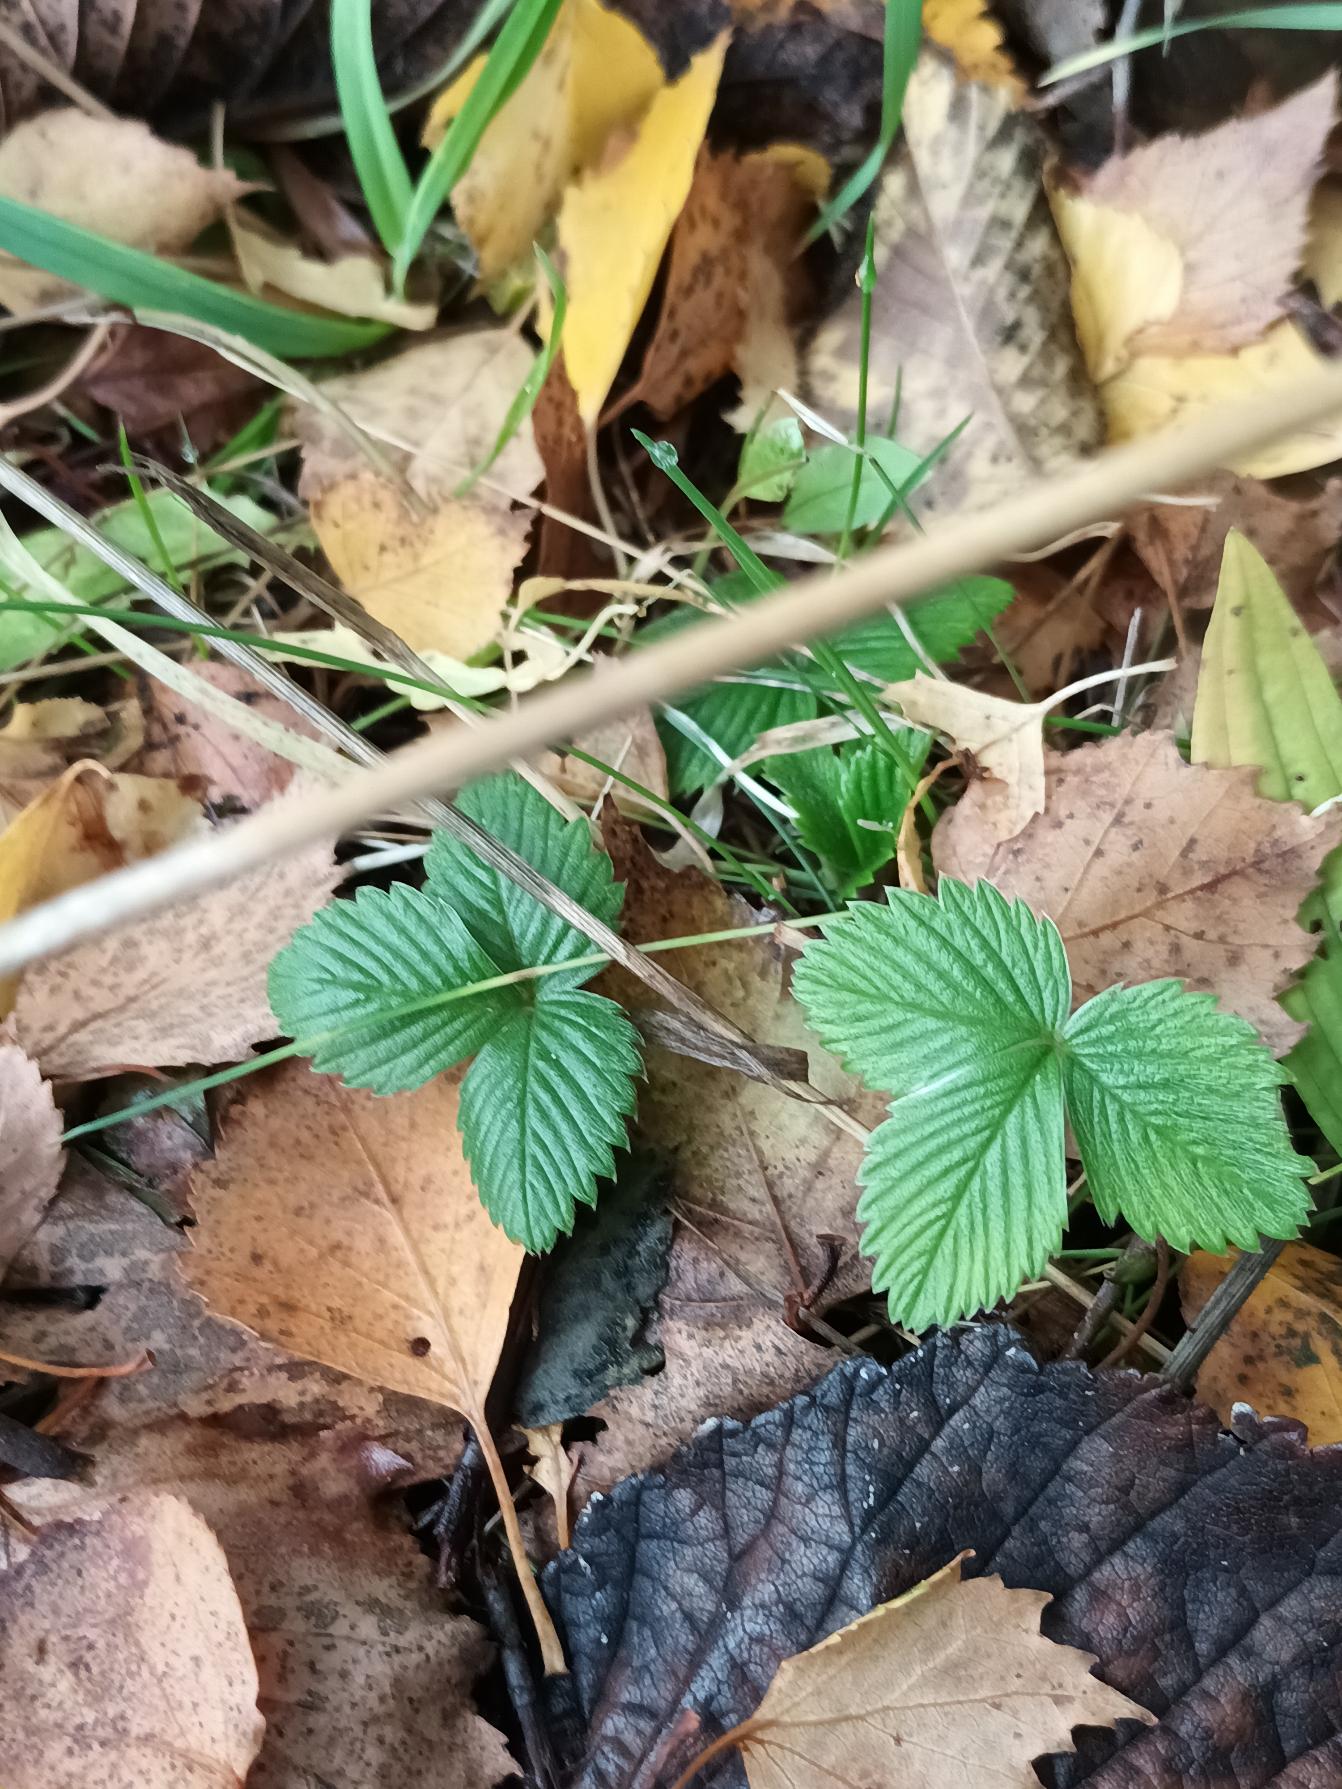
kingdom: Plantae
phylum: Tracheophyta
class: Magnoliopsida
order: Rosales
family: Rosaceae
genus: Fragaria
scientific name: Fragaria vesca
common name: Skov-jordbær
